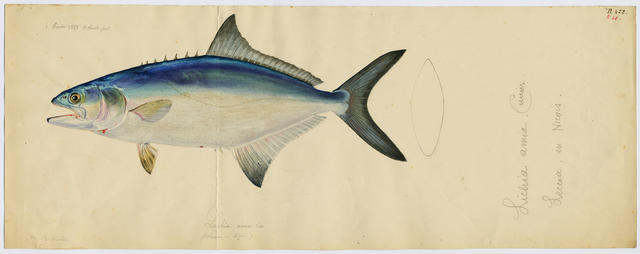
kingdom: Animalia
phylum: Chordata
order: Perciformes
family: Carangidae
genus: Lichia
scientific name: Lichia amia
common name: Leerfish
